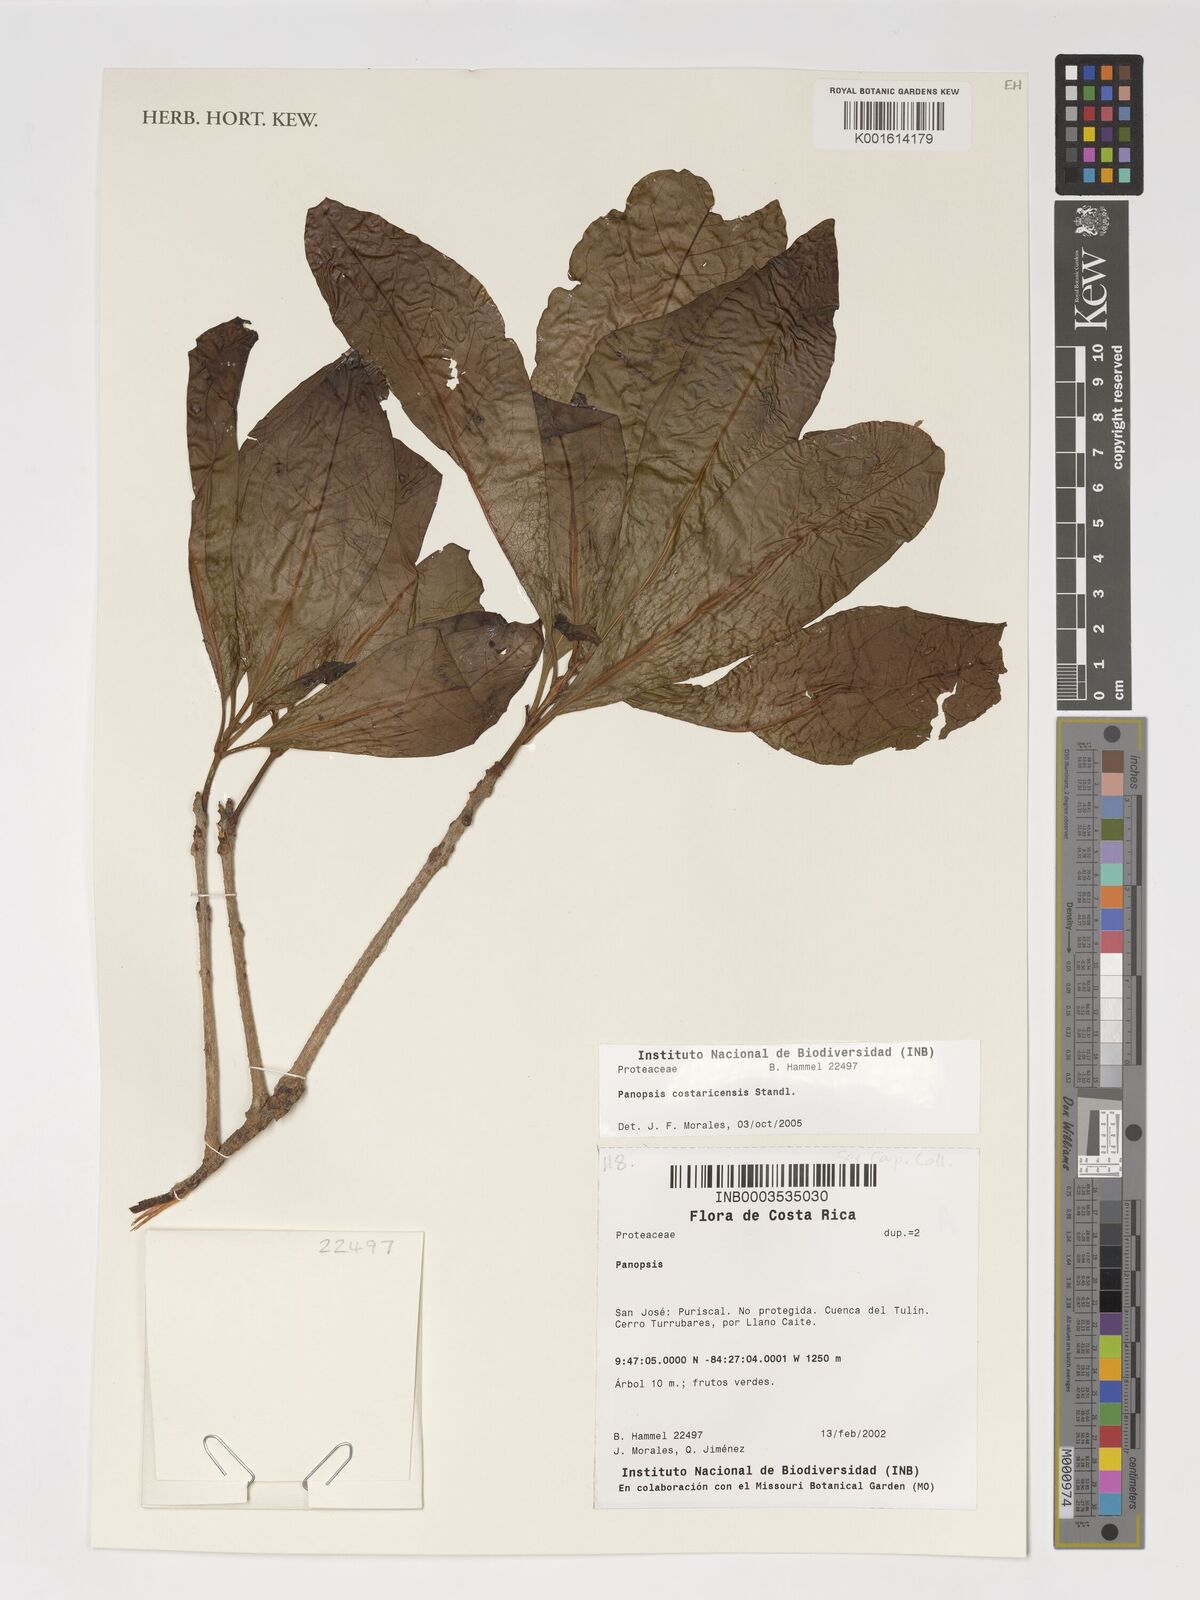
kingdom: Plantae
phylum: Tracheophyta
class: Magnoliopsida
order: Proteales
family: Proteaceae
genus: Panopsis
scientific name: Panopsis costaricensis
